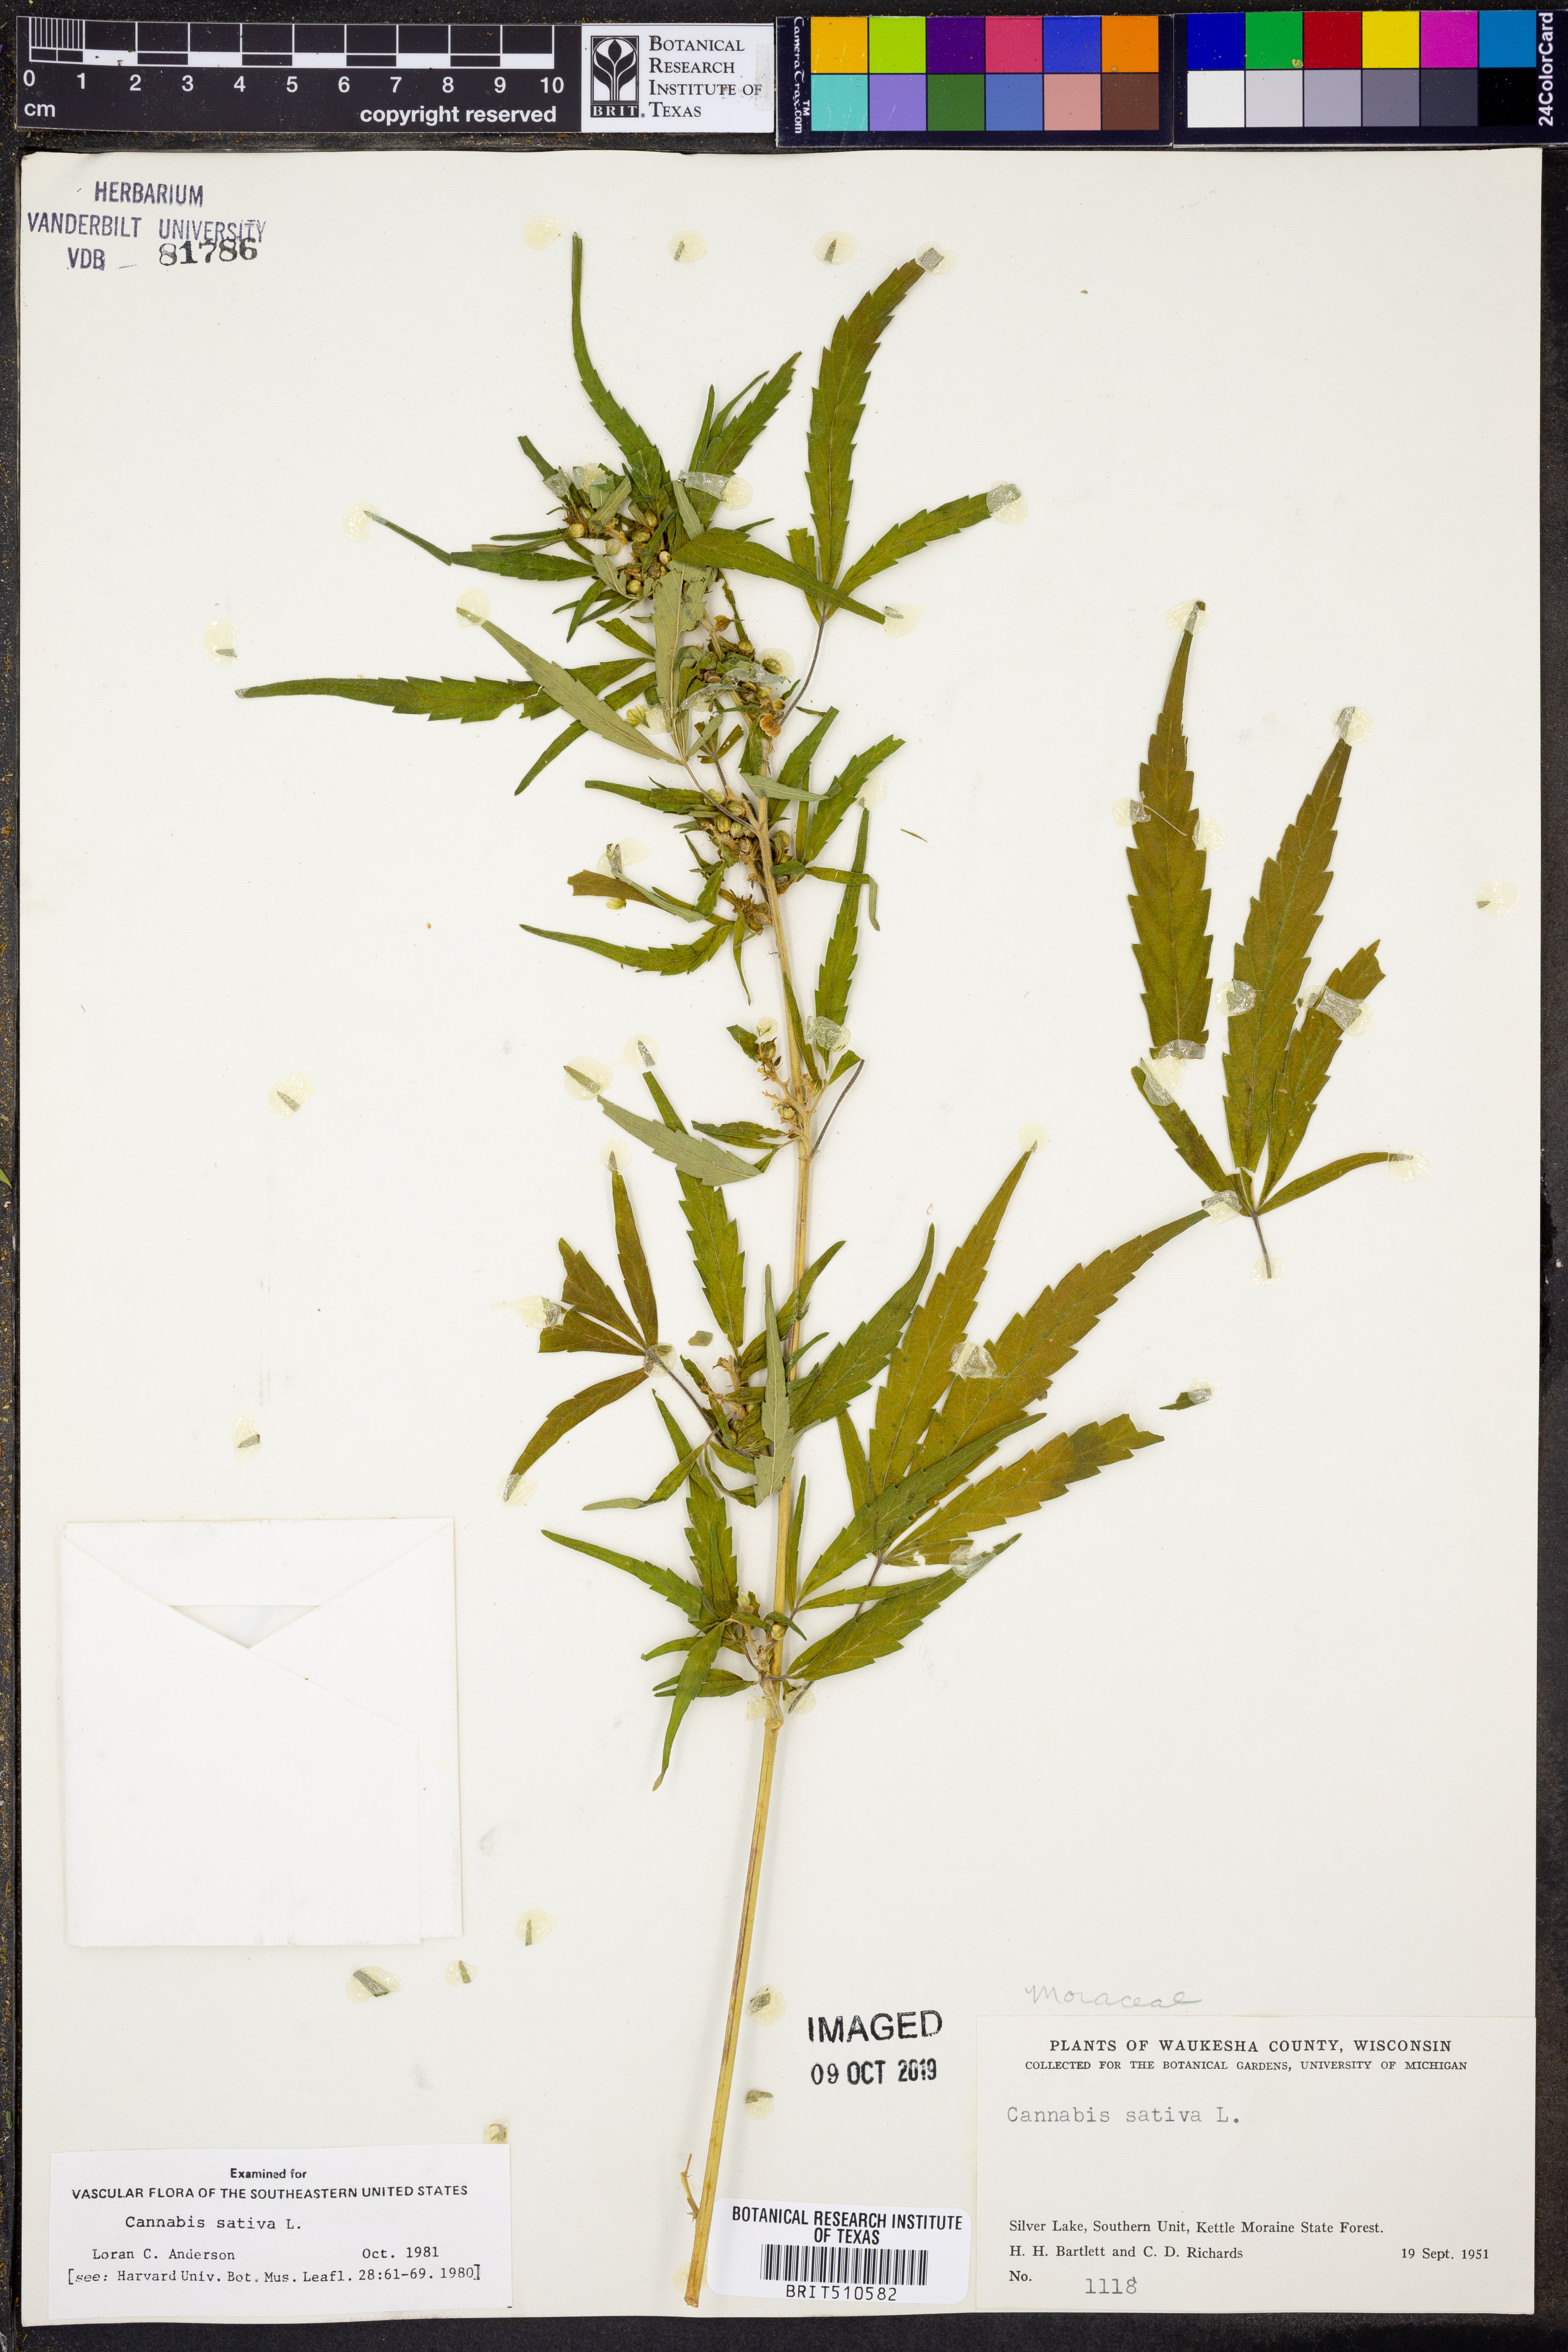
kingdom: Plantae
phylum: Tracheophyta
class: Magnoliopsida
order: Rosales
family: Cannabaceae
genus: Cannabis
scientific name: Cannabis sativa
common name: Hemp
